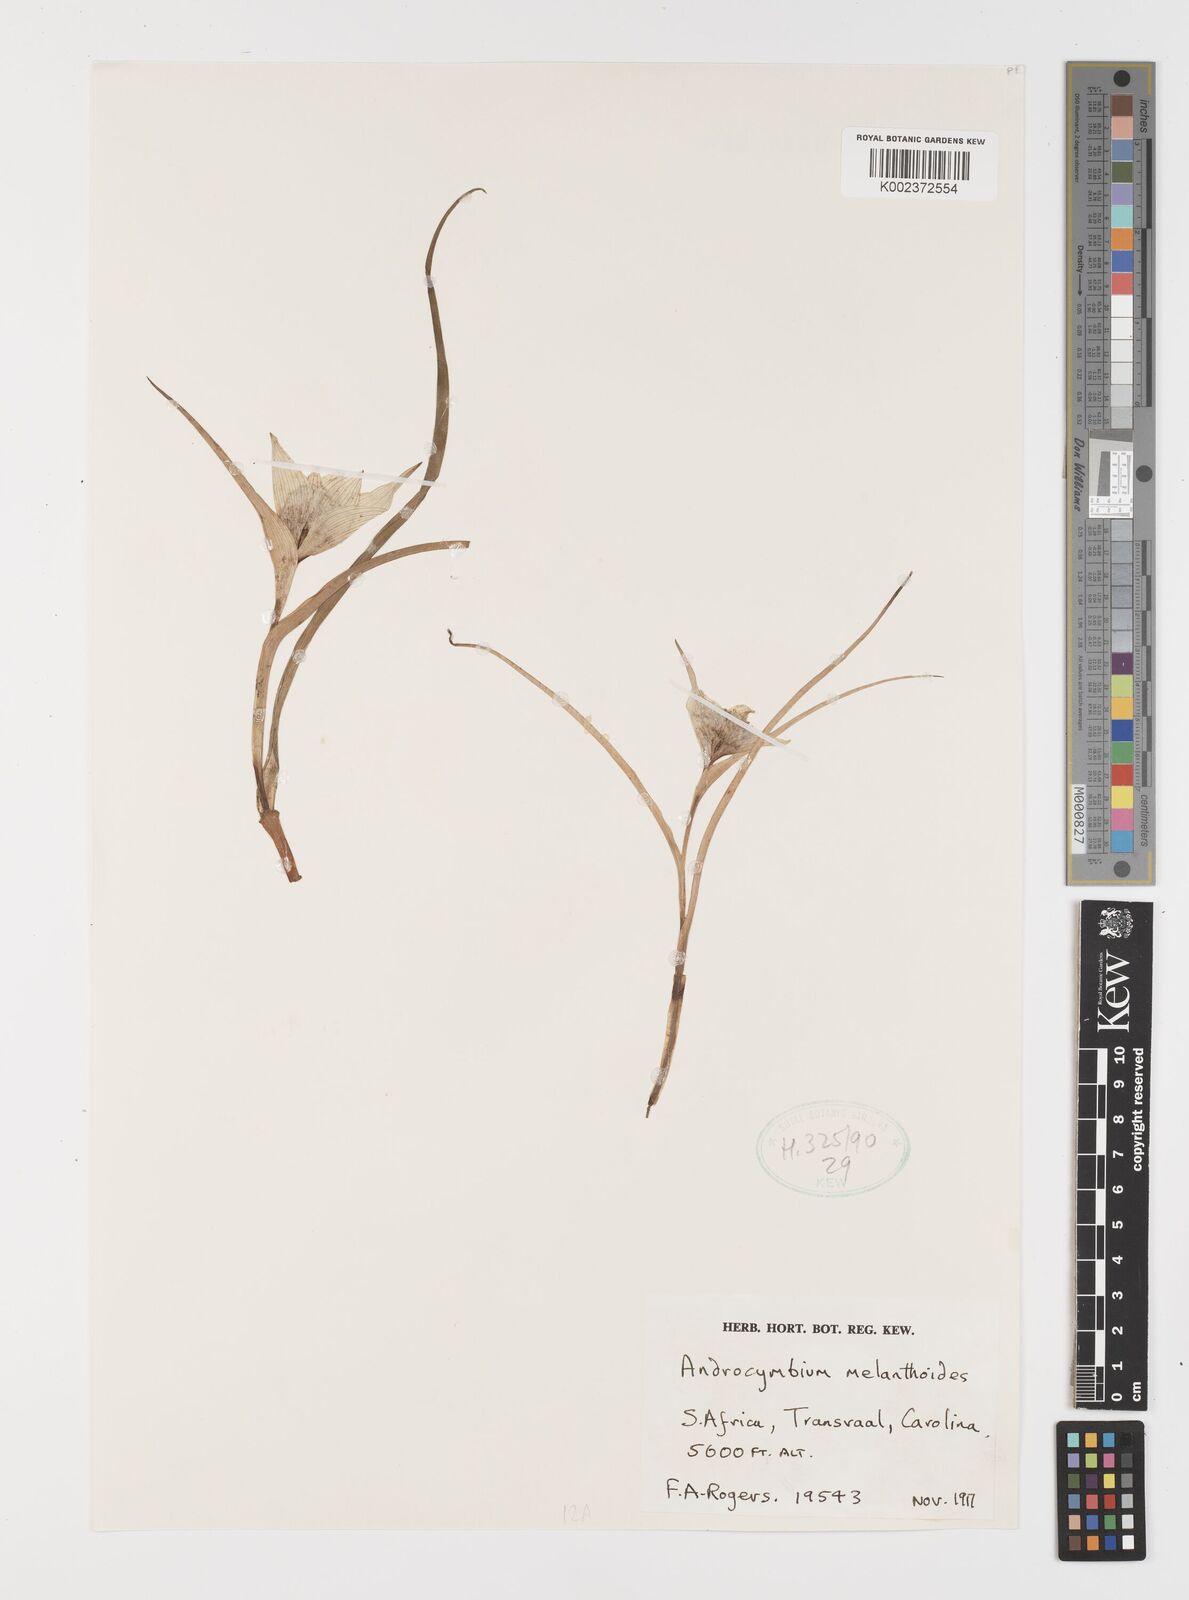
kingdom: Plantae
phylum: Tracheophyta
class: Liliopsida
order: Liliales
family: Colchicaceae
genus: Colchicum
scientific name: Colchicum melanthioides
